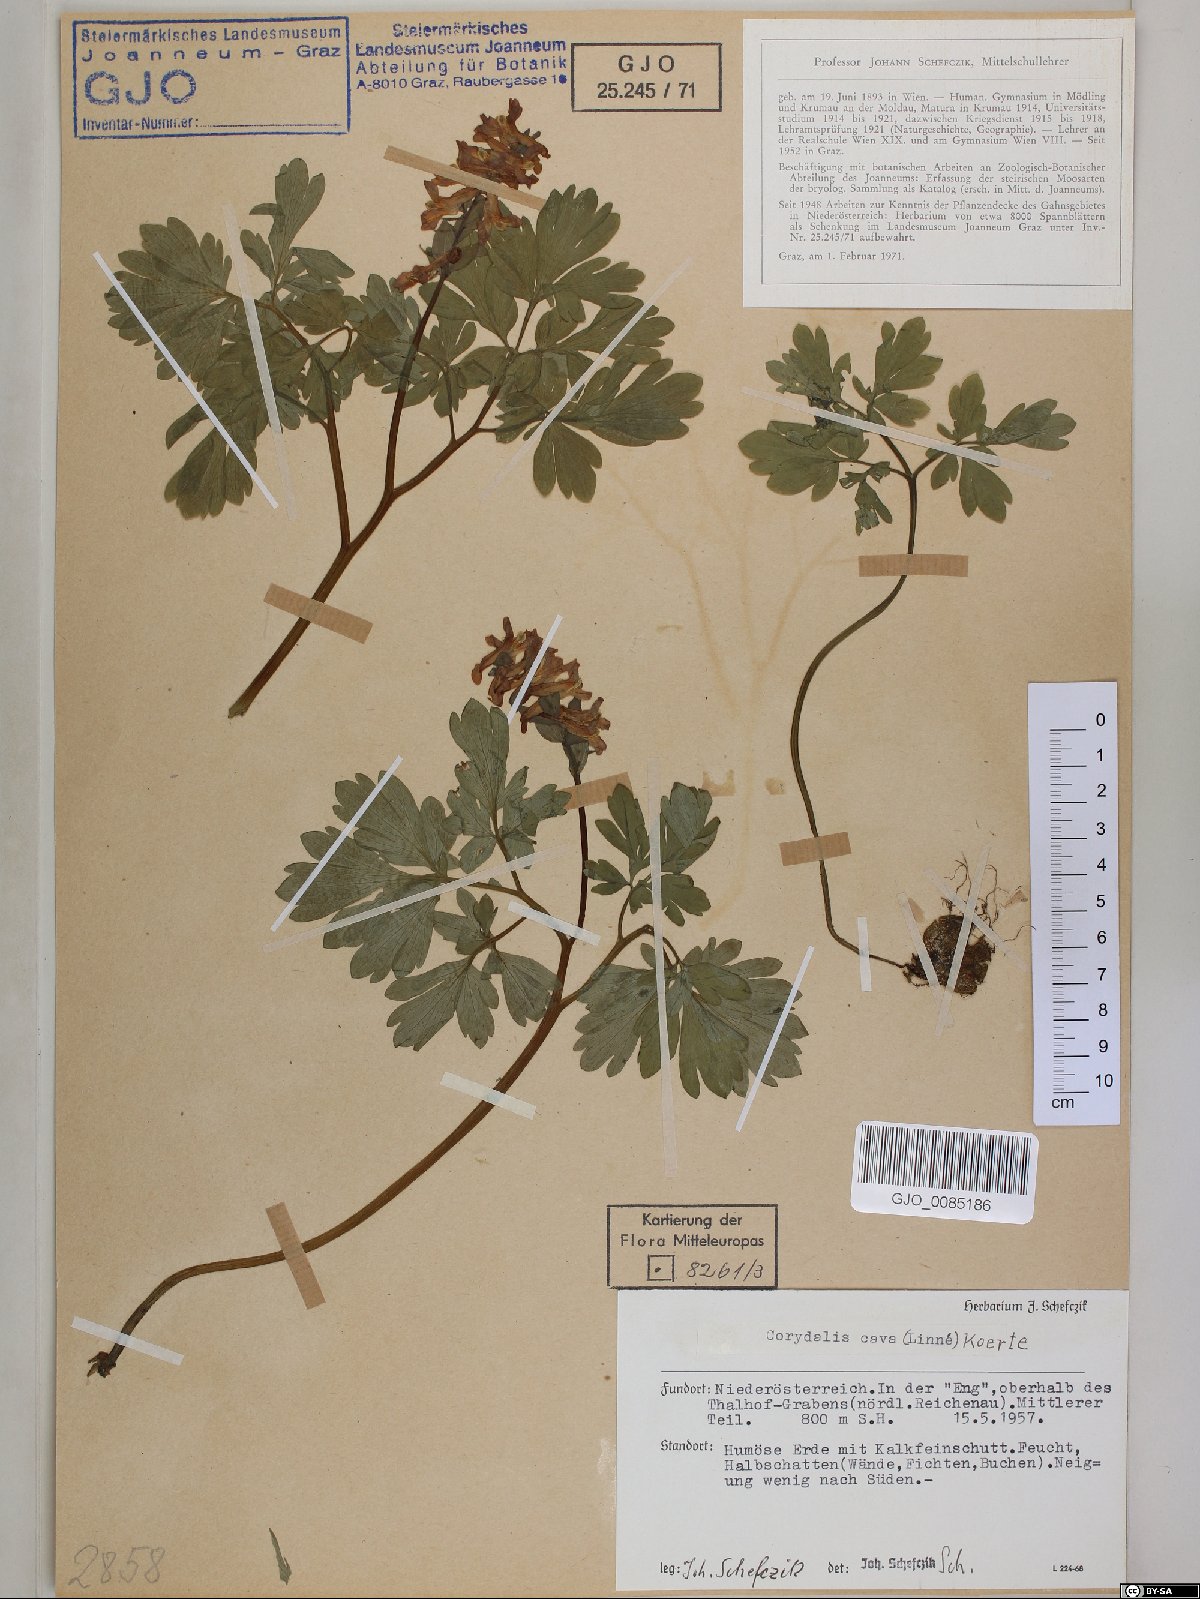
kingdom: Plantae
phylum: Tracheophyta
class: Magnoliopsida
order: Ranunculales
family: Papaveraceae
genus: Corydalis
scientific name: Corydalis cava
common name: Hollowroot
